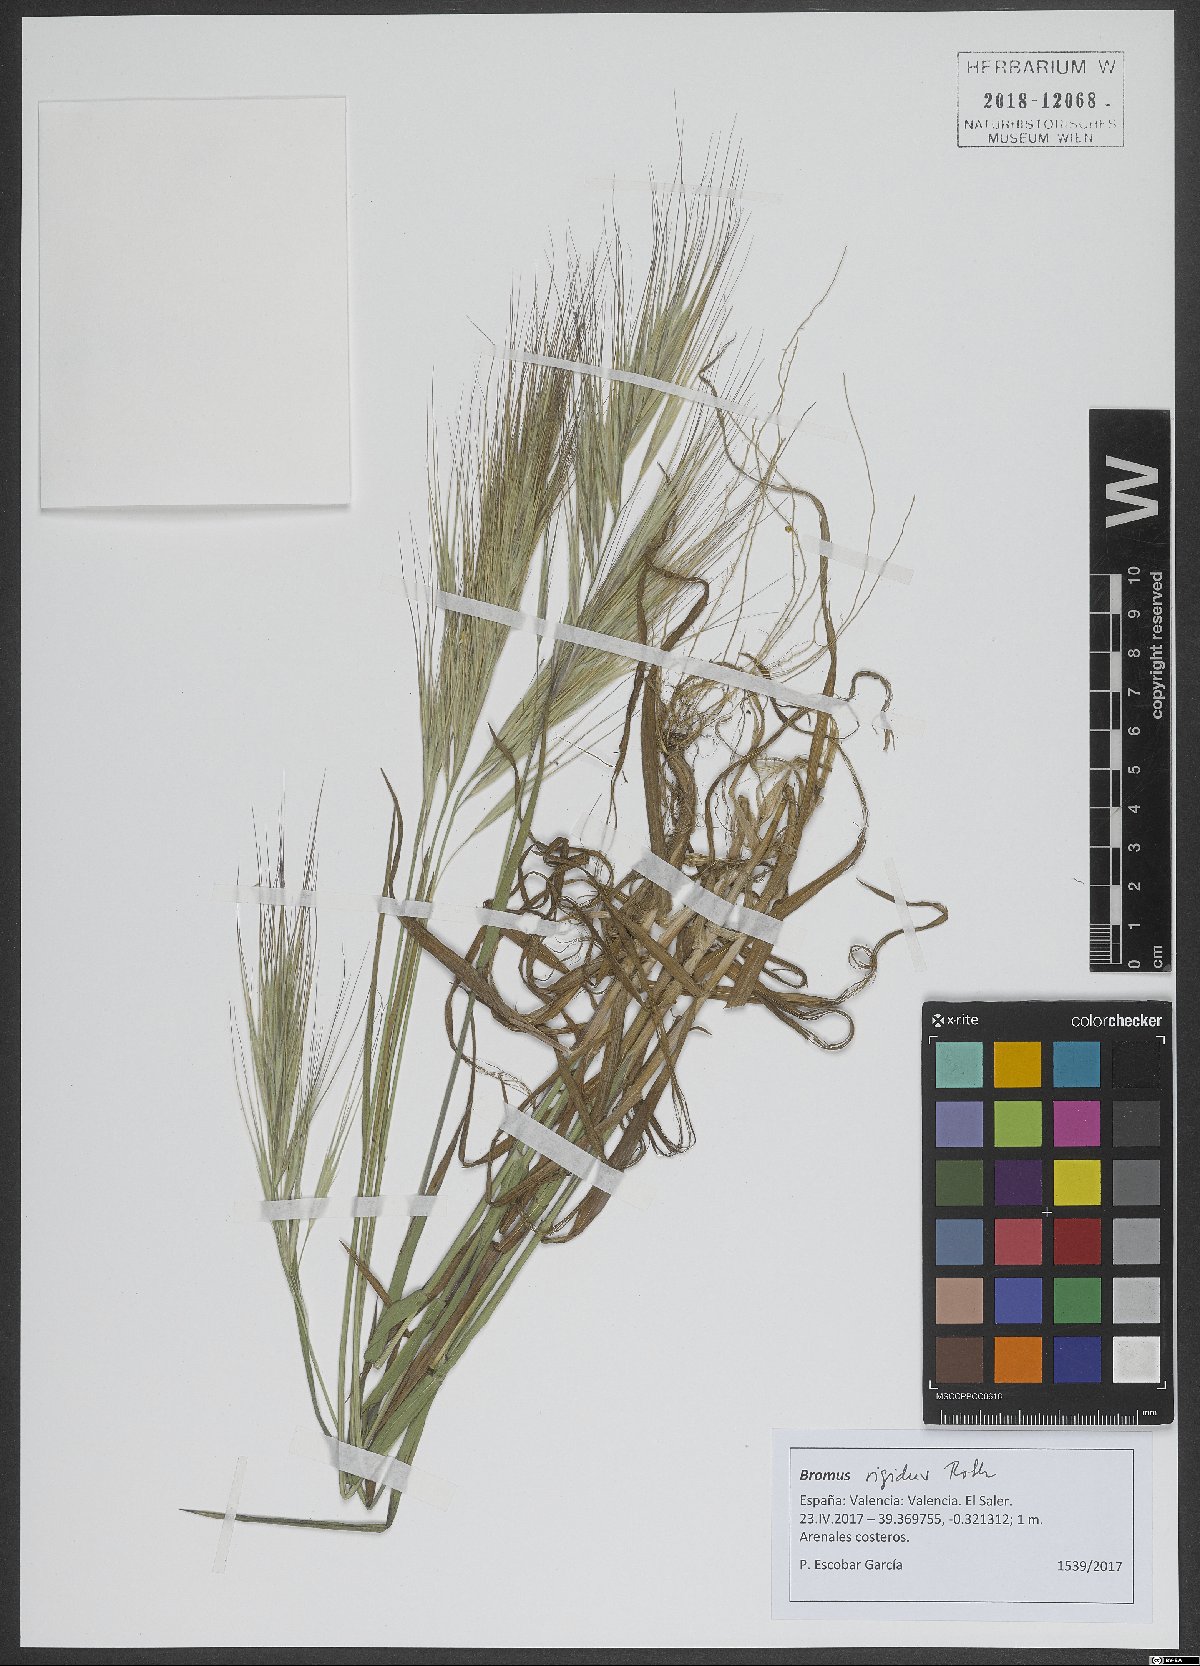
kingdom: Plantae
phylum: Tracheophyta
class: Liliopsida
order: Poales
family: Poaceae
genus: Bromus
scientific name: Bromus rigidus
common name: Ripgut brome
